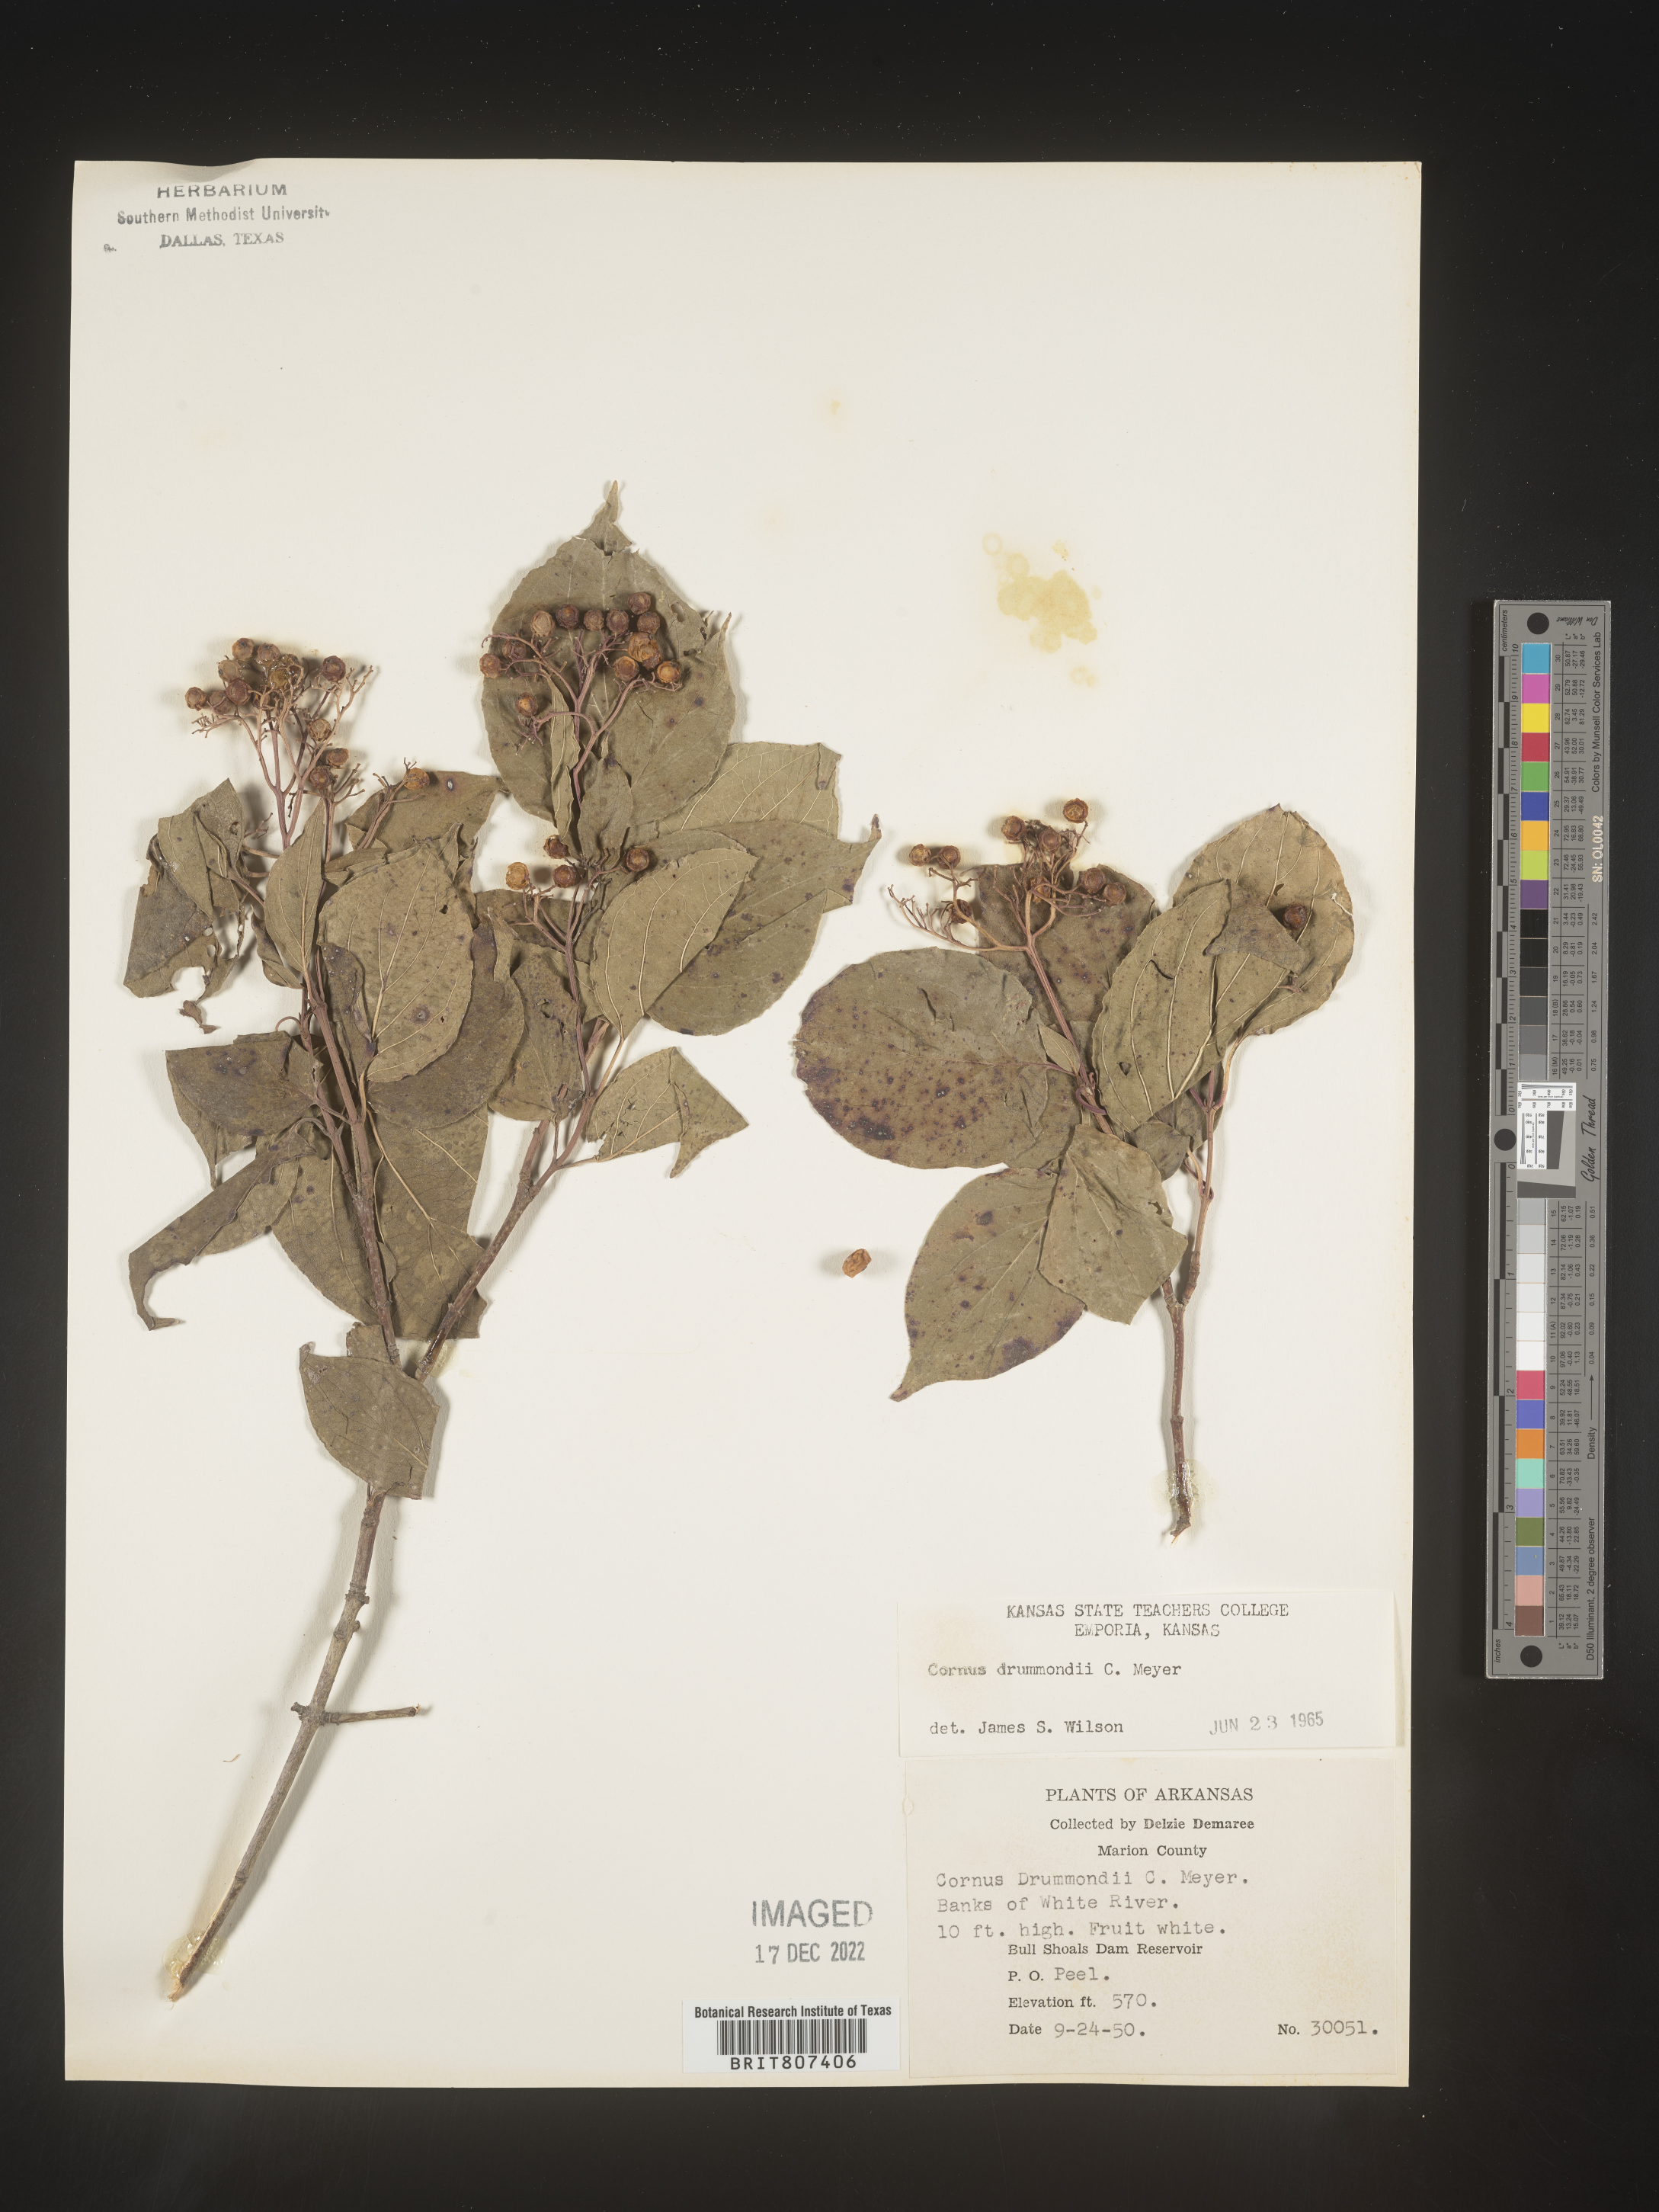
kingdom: Plantae
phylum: Tracheophyta
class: Magnoliopsida
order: Cornales
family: Cornaceae
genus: Cornus
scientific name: Cornus drummondii
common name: Rough-leaf dogwood
